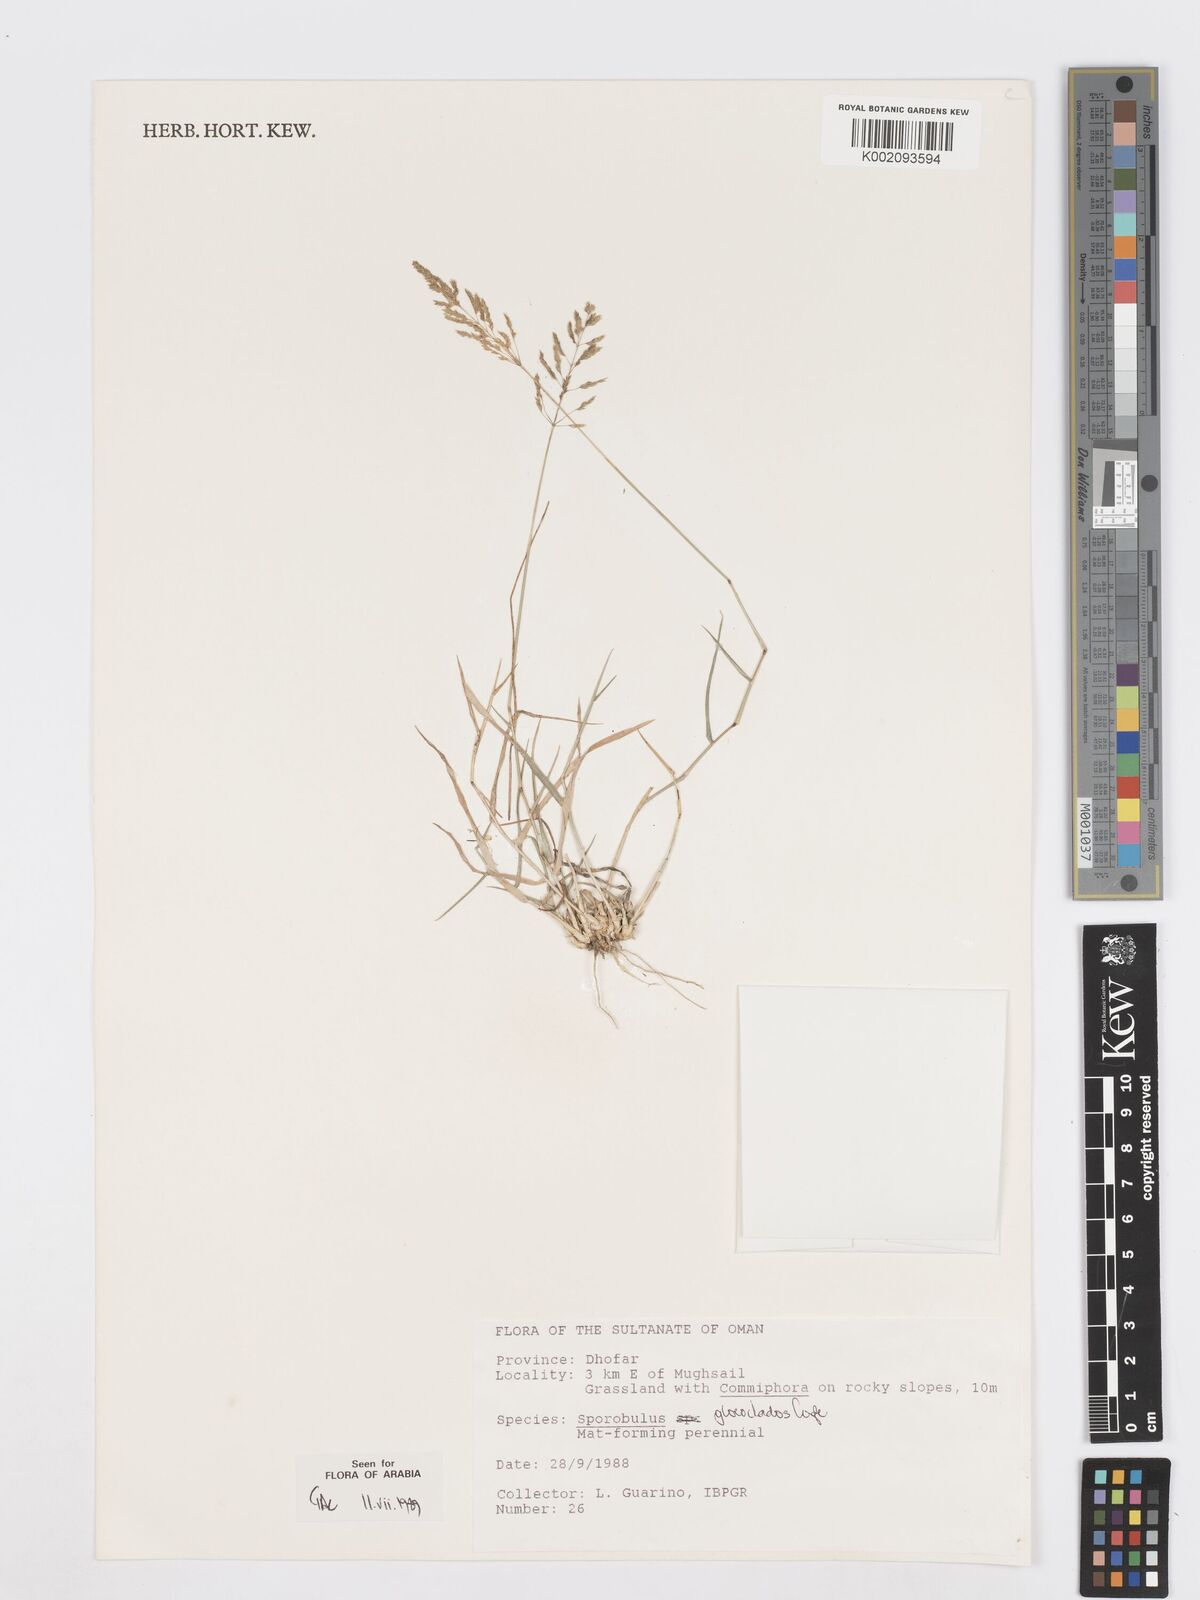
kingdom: Plantae
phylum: Tracheophyta
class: Liliopsida
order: Poales
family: Poaceae
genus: Sporobolus
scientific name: Sporobolus gloeoclados
